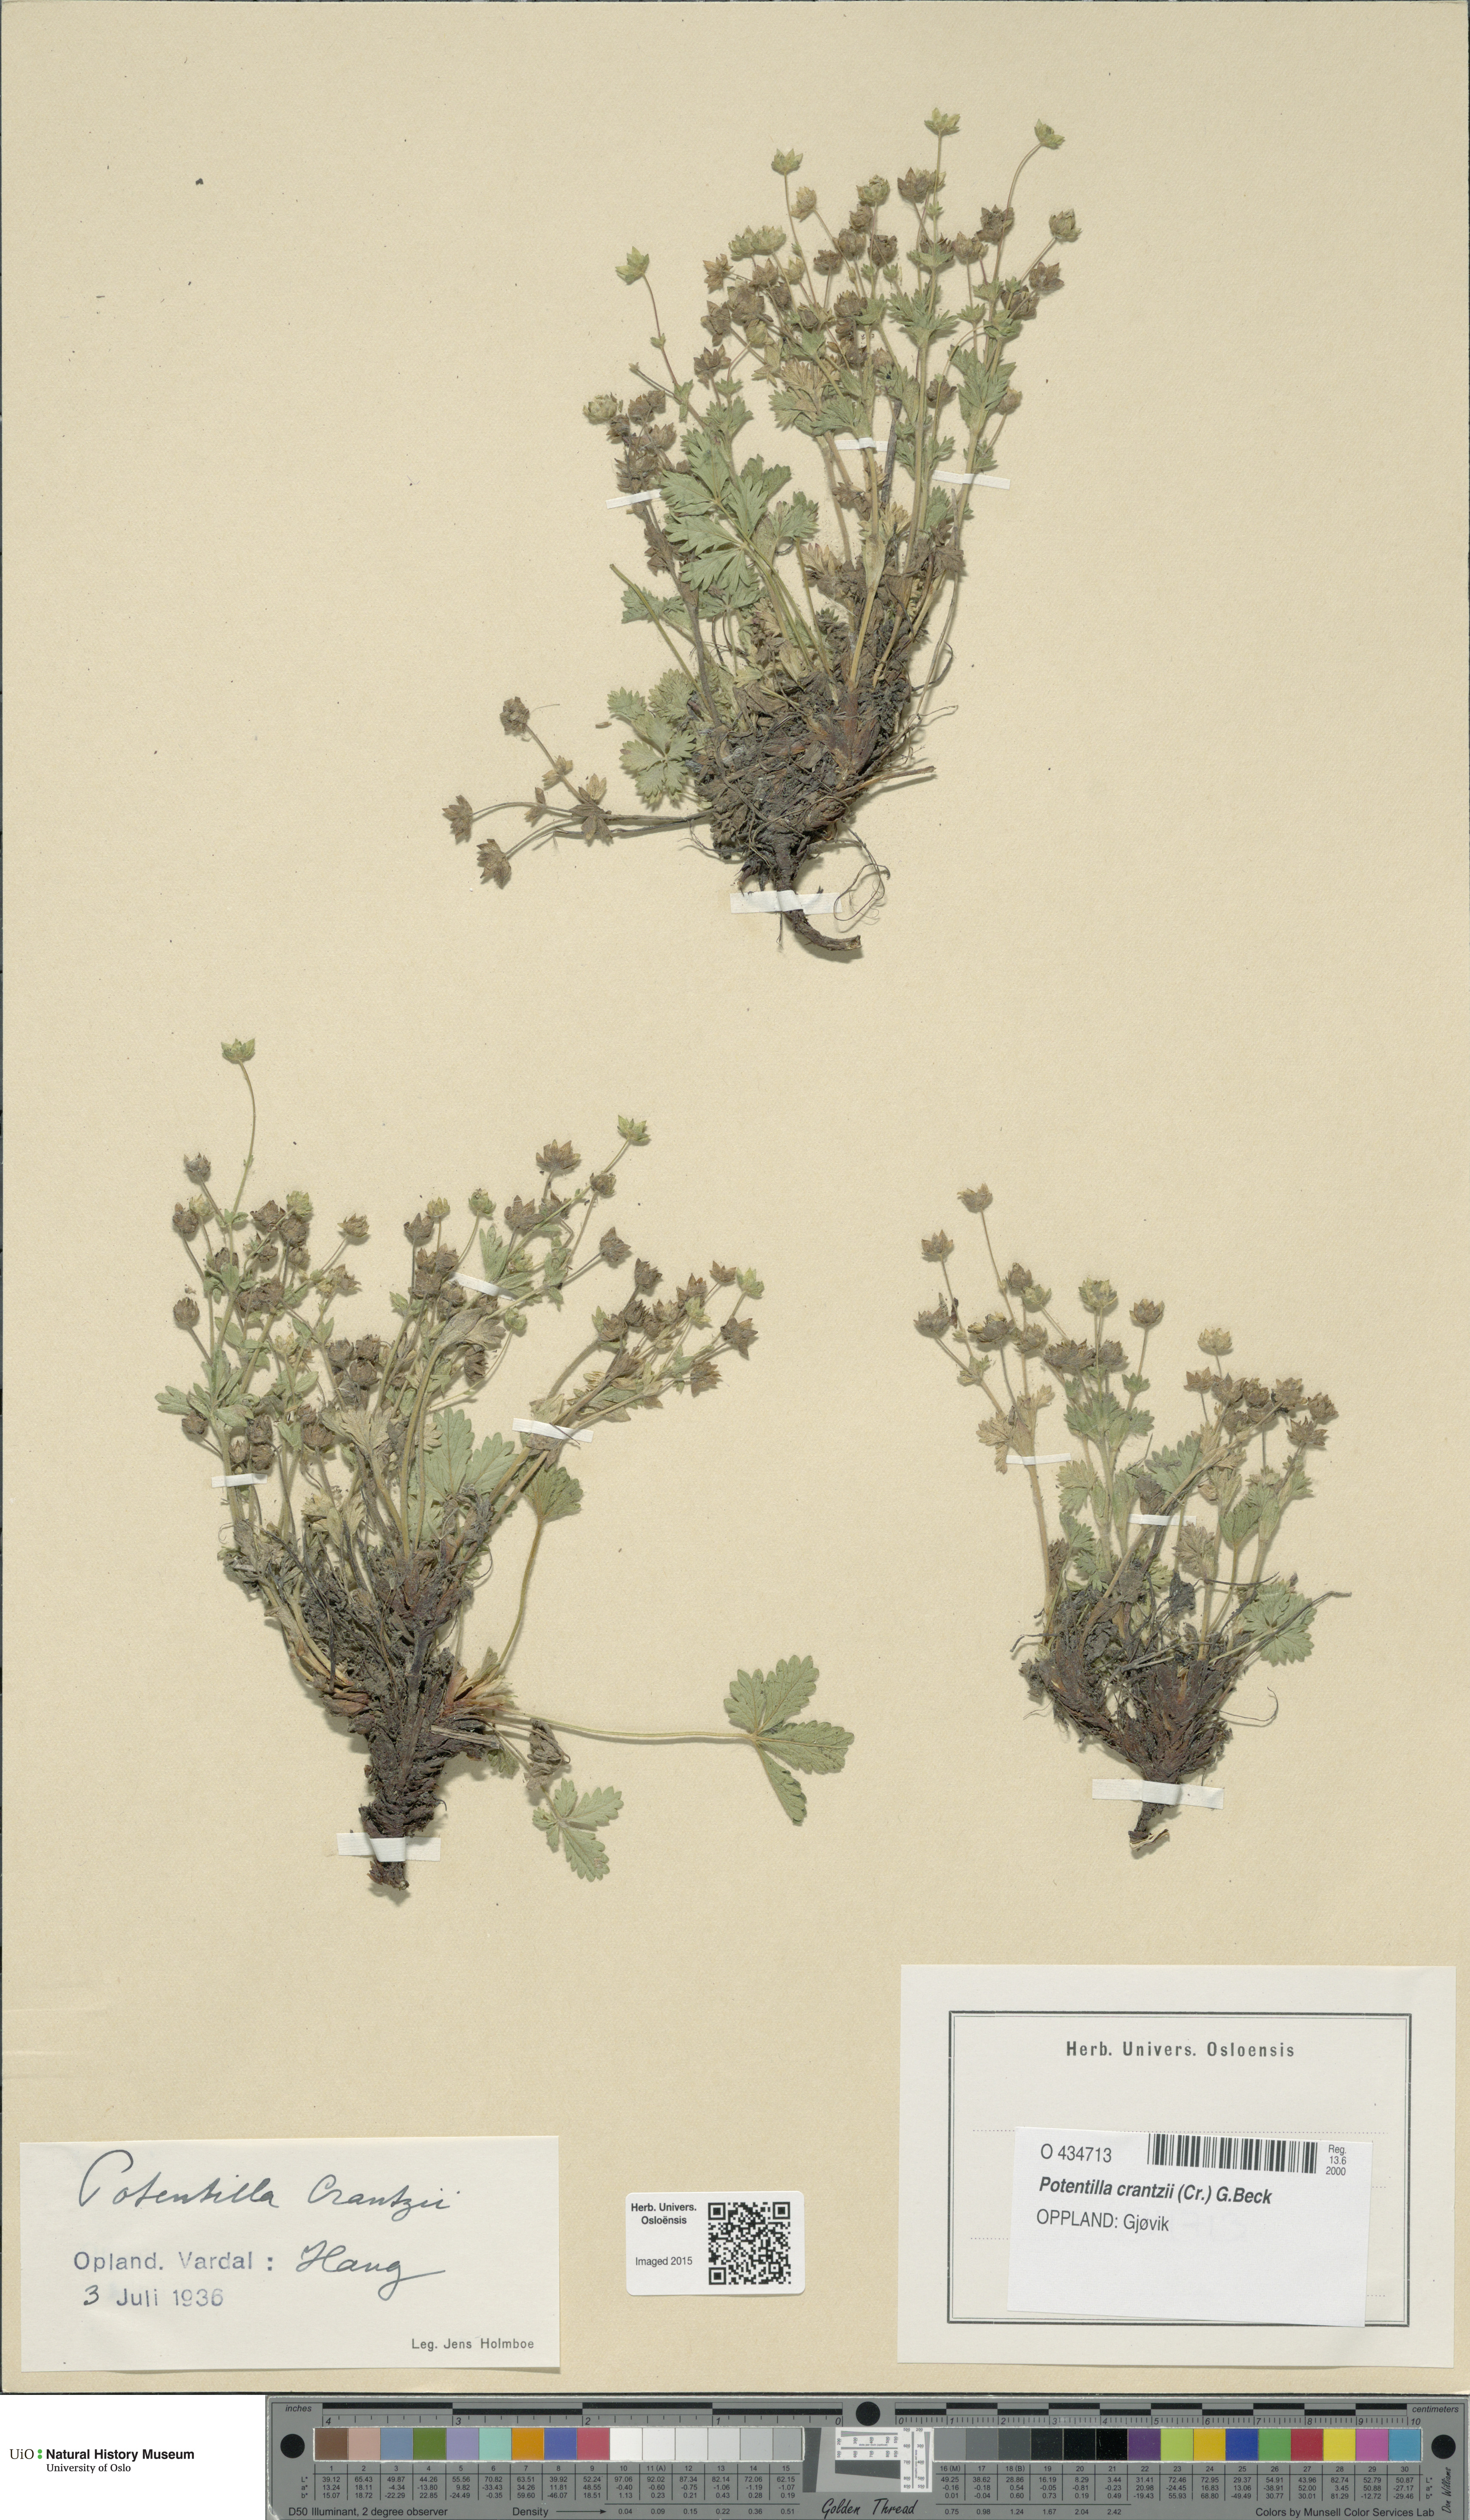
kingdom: Plantae
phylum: Tracheophyta
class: Magnoliopsida
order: Rosales
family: Rosaceae
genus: Potentilla
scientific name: Potentilla crantzii
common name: Alpine cinquefoil
